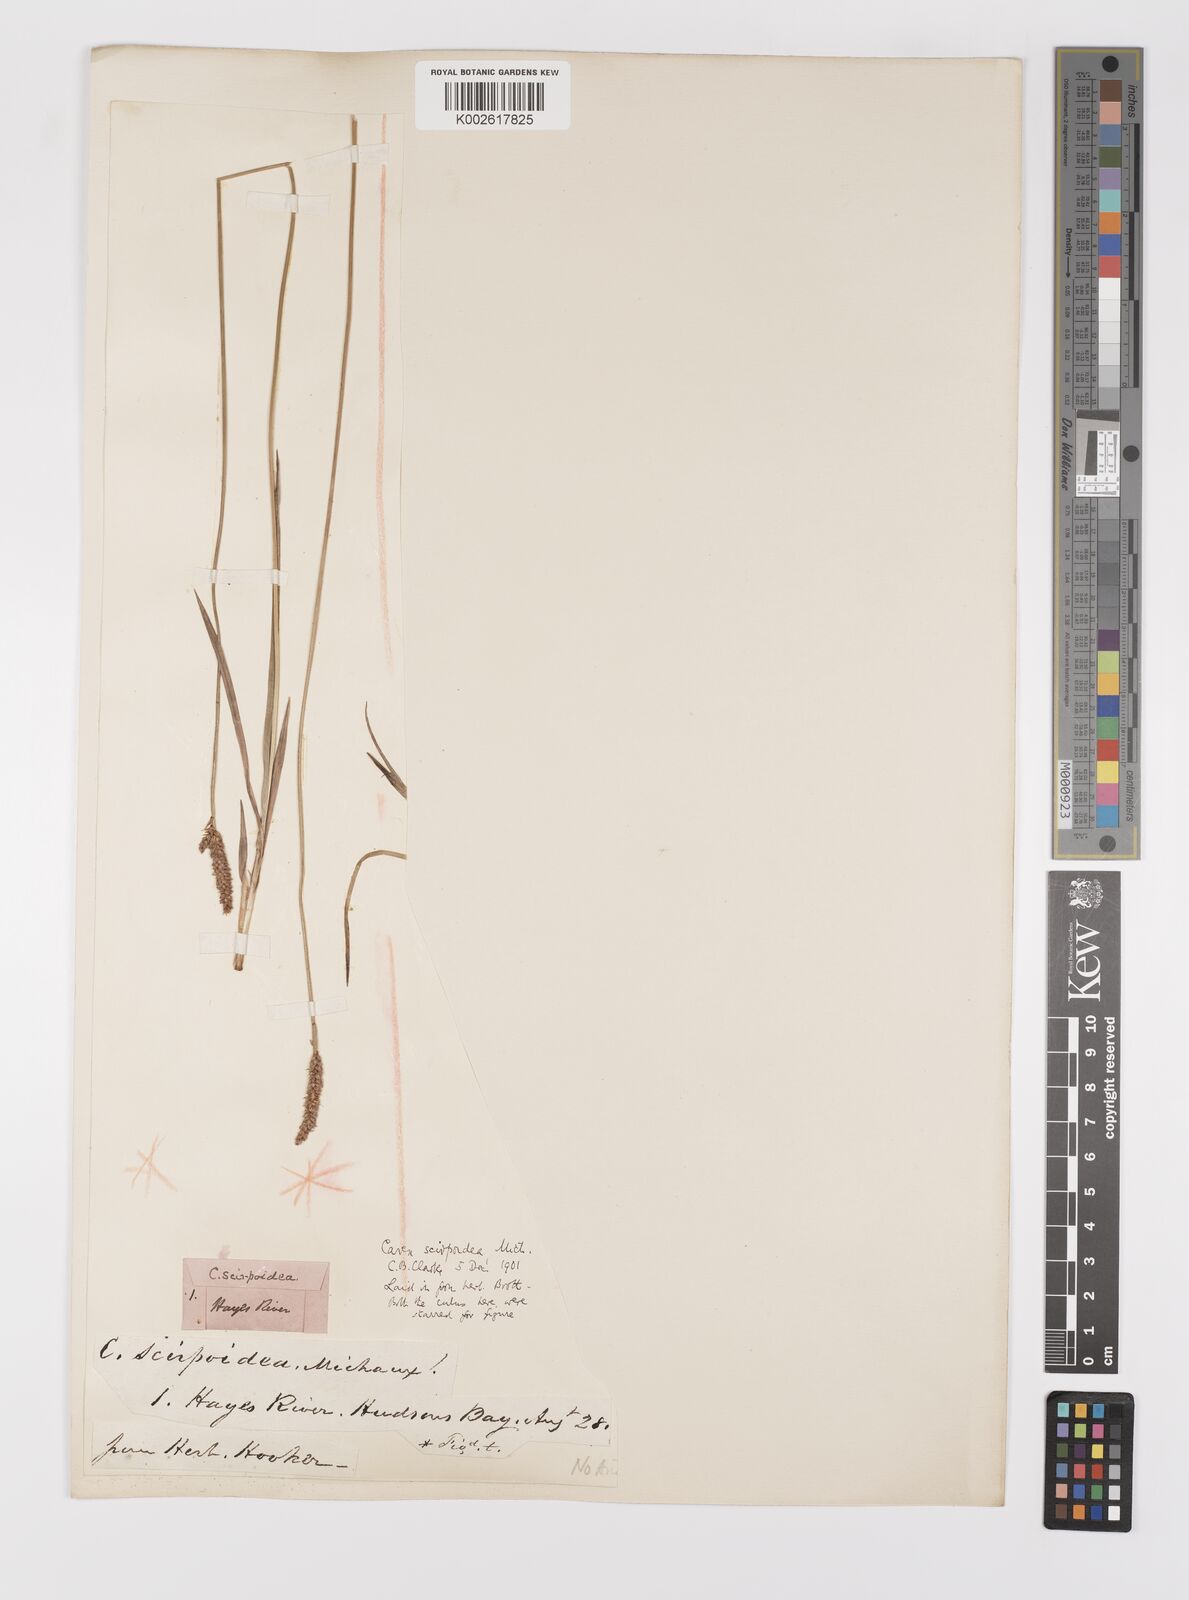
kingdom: Plantae
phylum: Tracheophyta
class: Liliopsida
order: Poales
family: Cyperaceae
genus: Carex
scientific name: Carex scirpoidea
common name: Canada single-spike sedge
